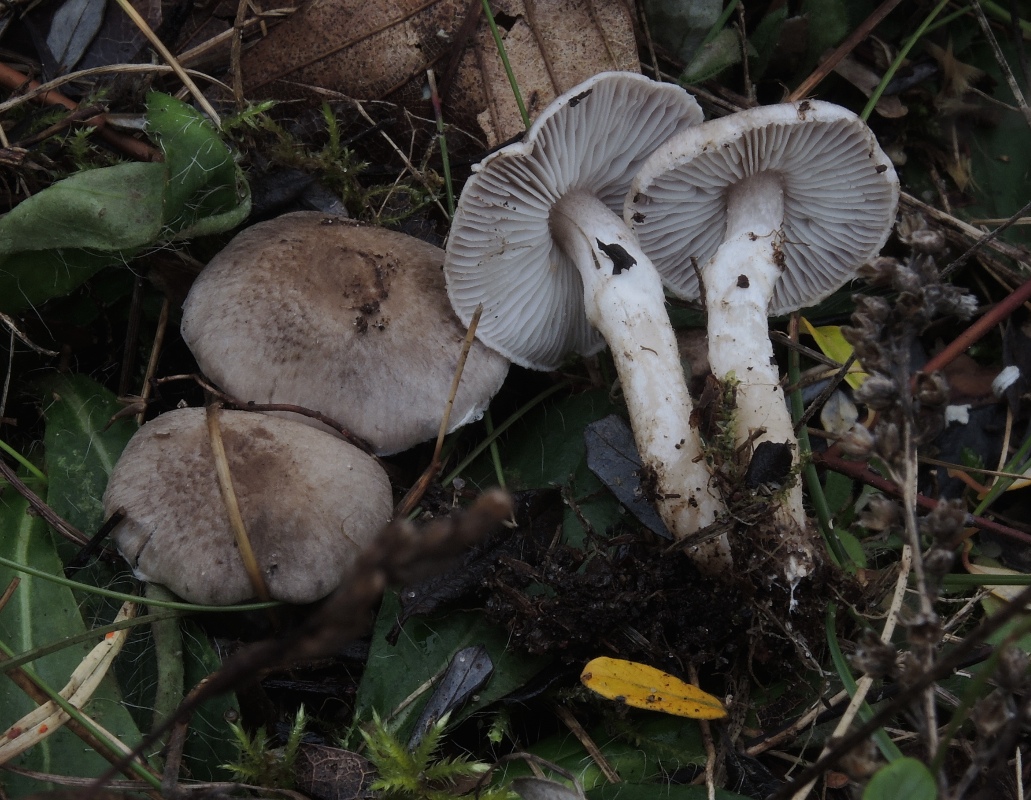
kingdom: Fungi
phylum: Basidiomycota
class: Agaricomycetes
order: Agaricales
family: Tricholomataceae
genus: Tricholoma
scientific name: Tricholoma cingulatum
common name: ring-ridderhat
